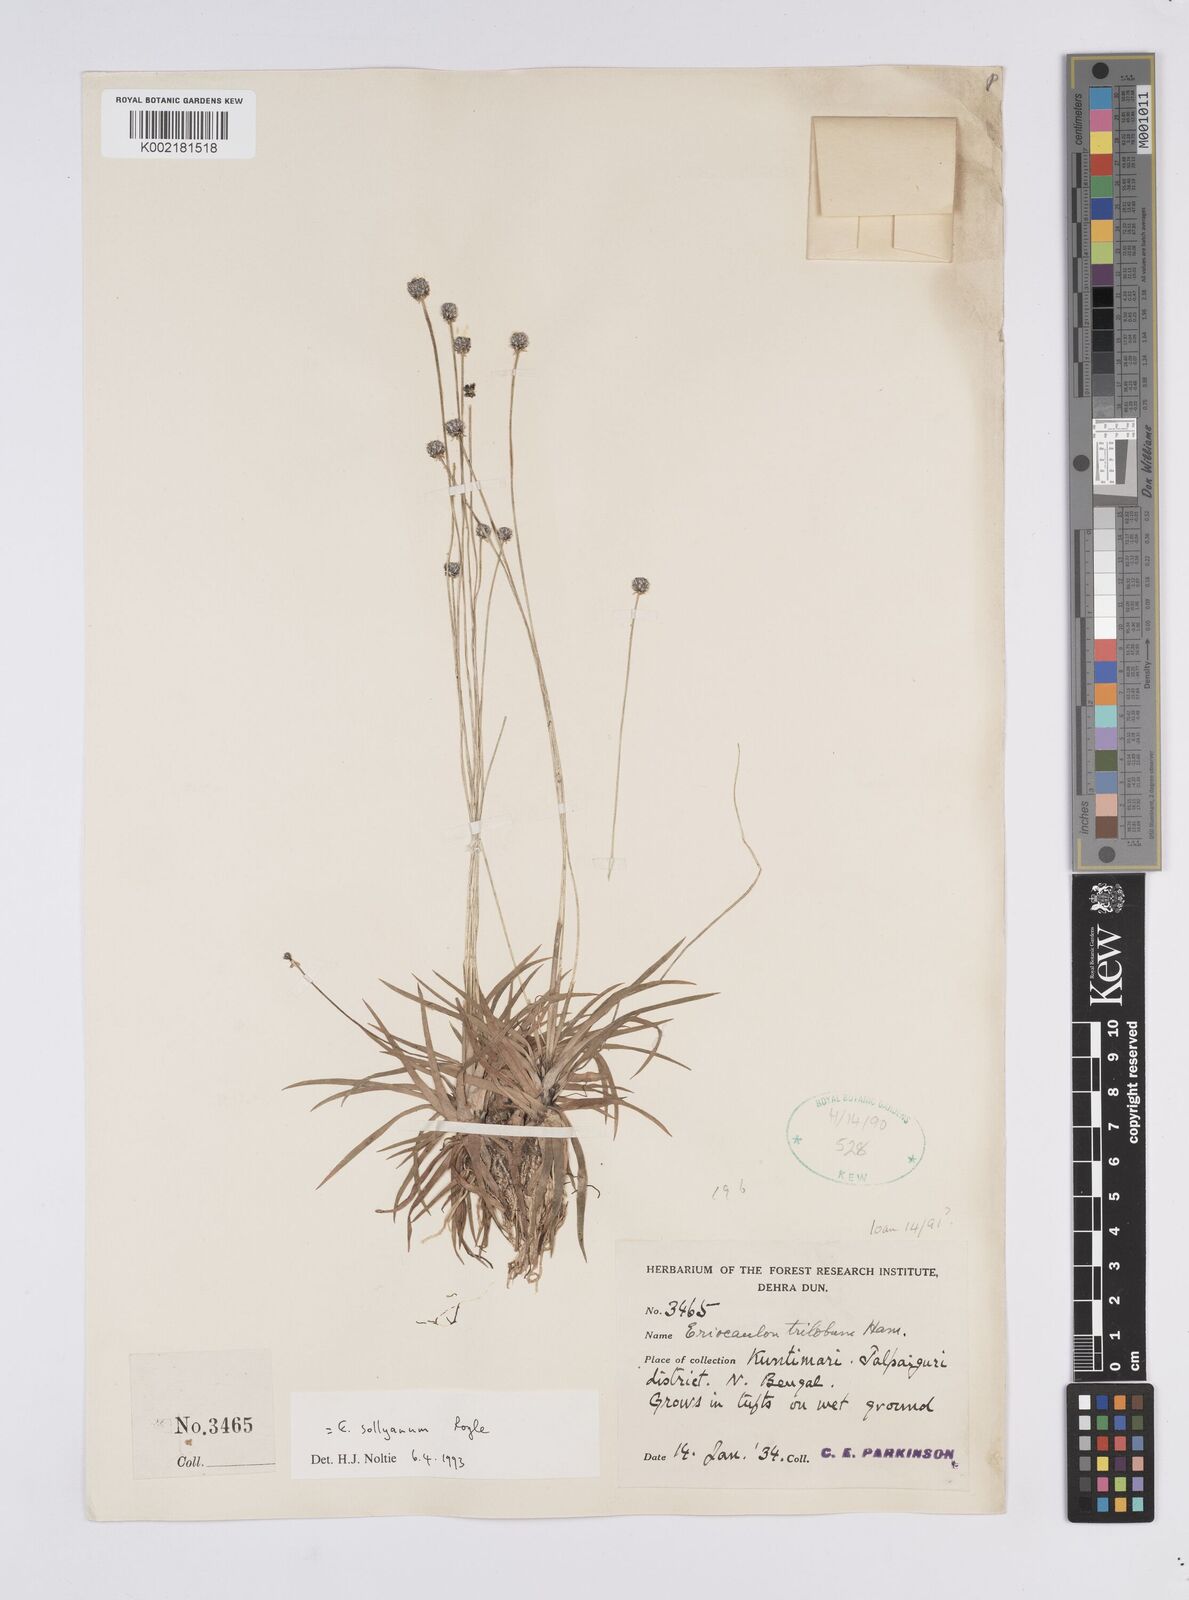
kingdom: Plantae
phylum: Tracheophyta
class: Liliopsida
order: Poales
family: Eriocaulaceae
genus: Eriocaulon
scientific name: Eriocaulon sollyanum
